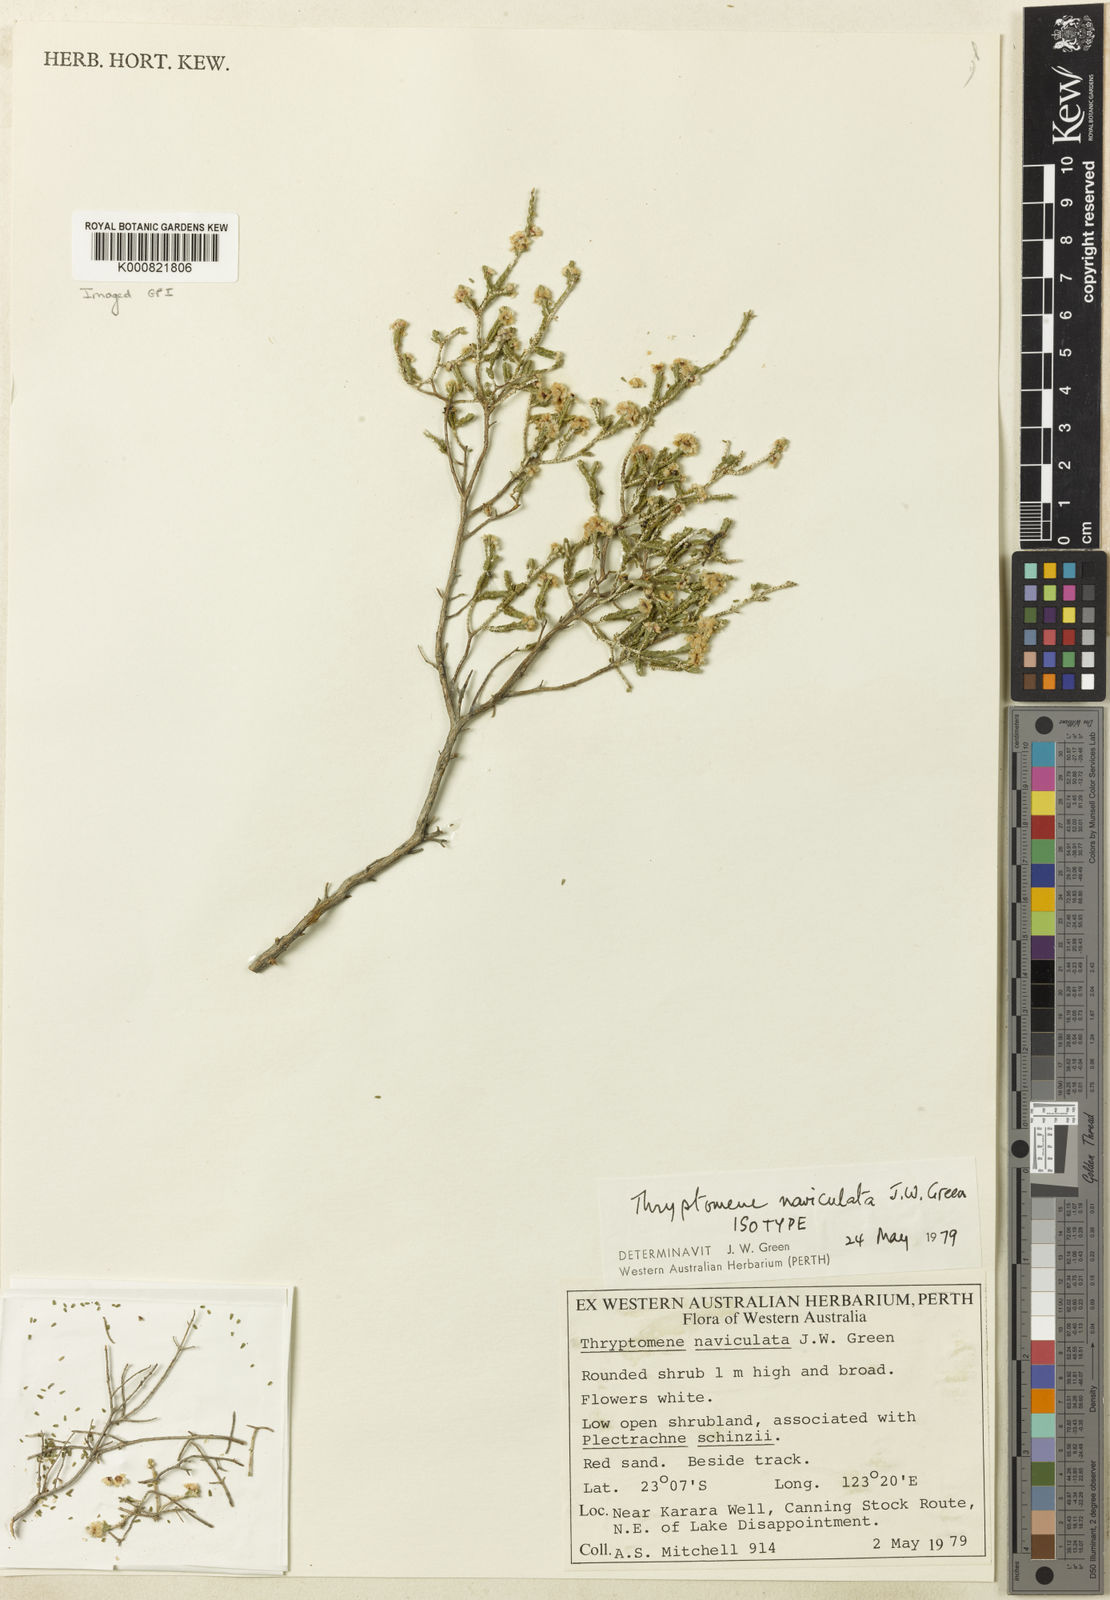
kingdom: Plantae
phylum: Tracheophyta
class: Magnoliopsida
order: Myrtales
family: Myrtaceae
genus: Thryptomene
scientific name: Thryptomene naviculata
